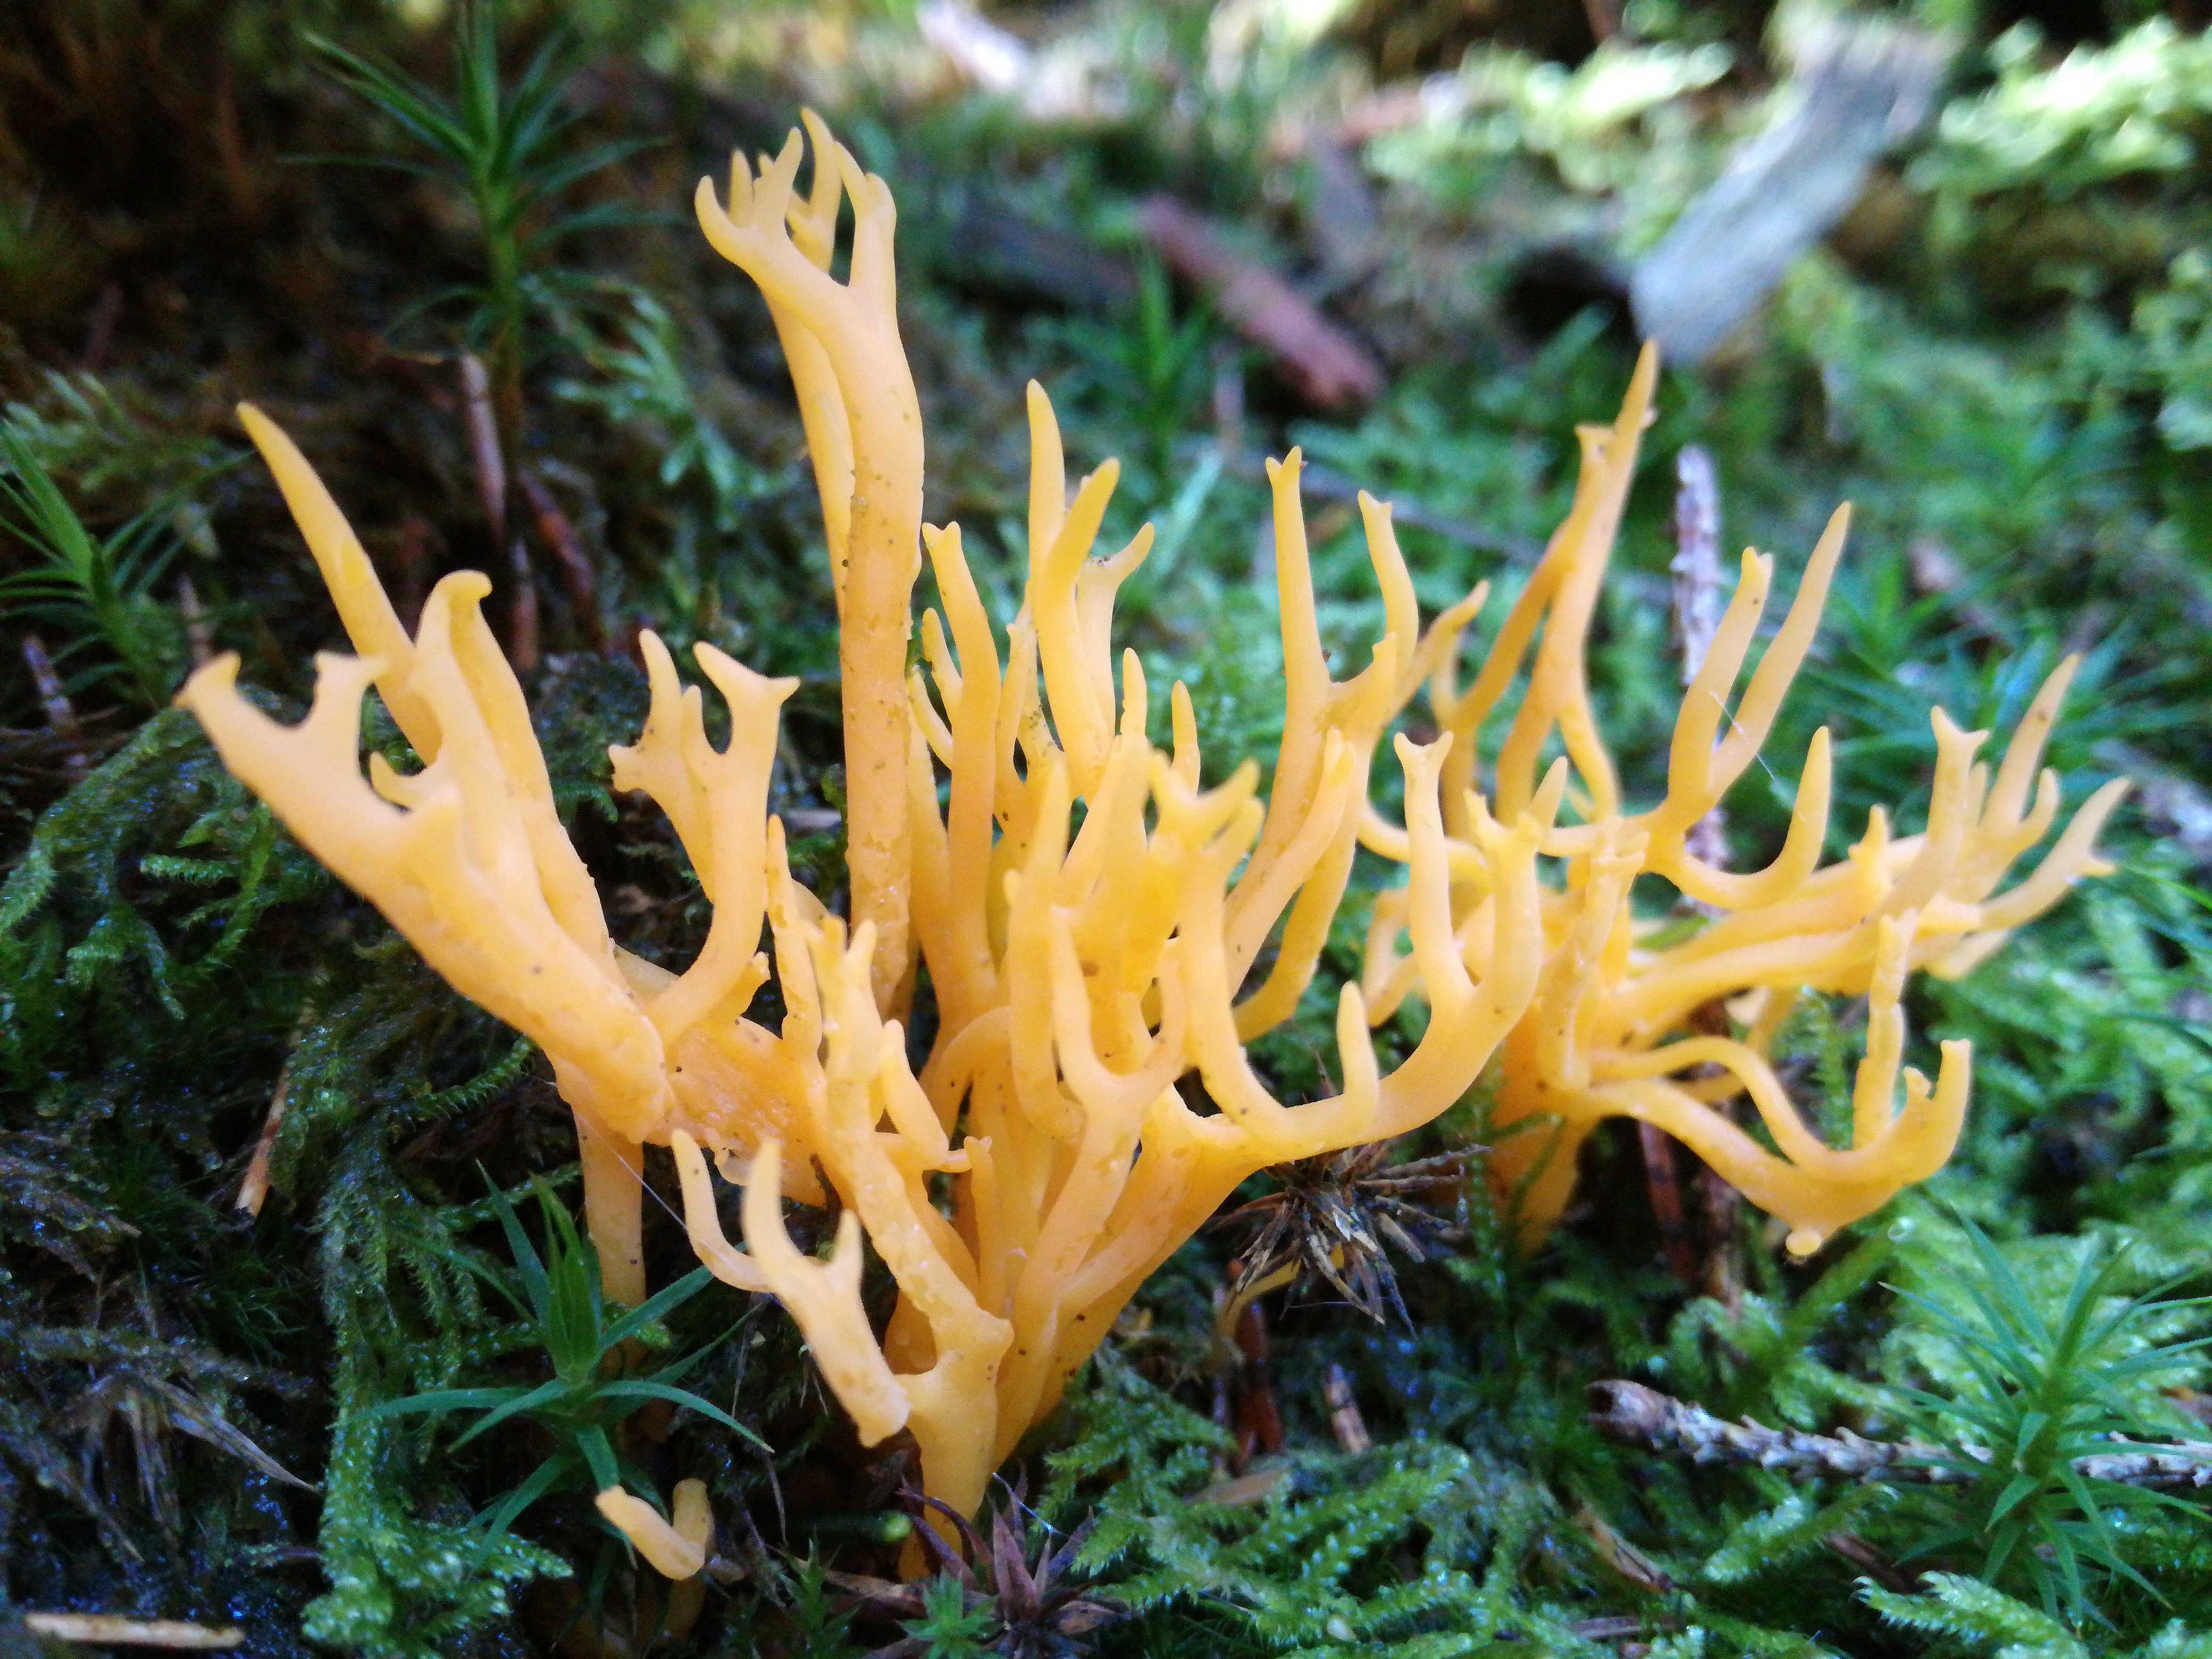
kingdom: Fungi
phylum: Basidiomycota
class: Dacrymycetes
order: Dacrymycetales
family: Dacrymycetaceae
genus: Calocera
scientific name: Calocera viscosa
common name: almindelig guldgaffel
